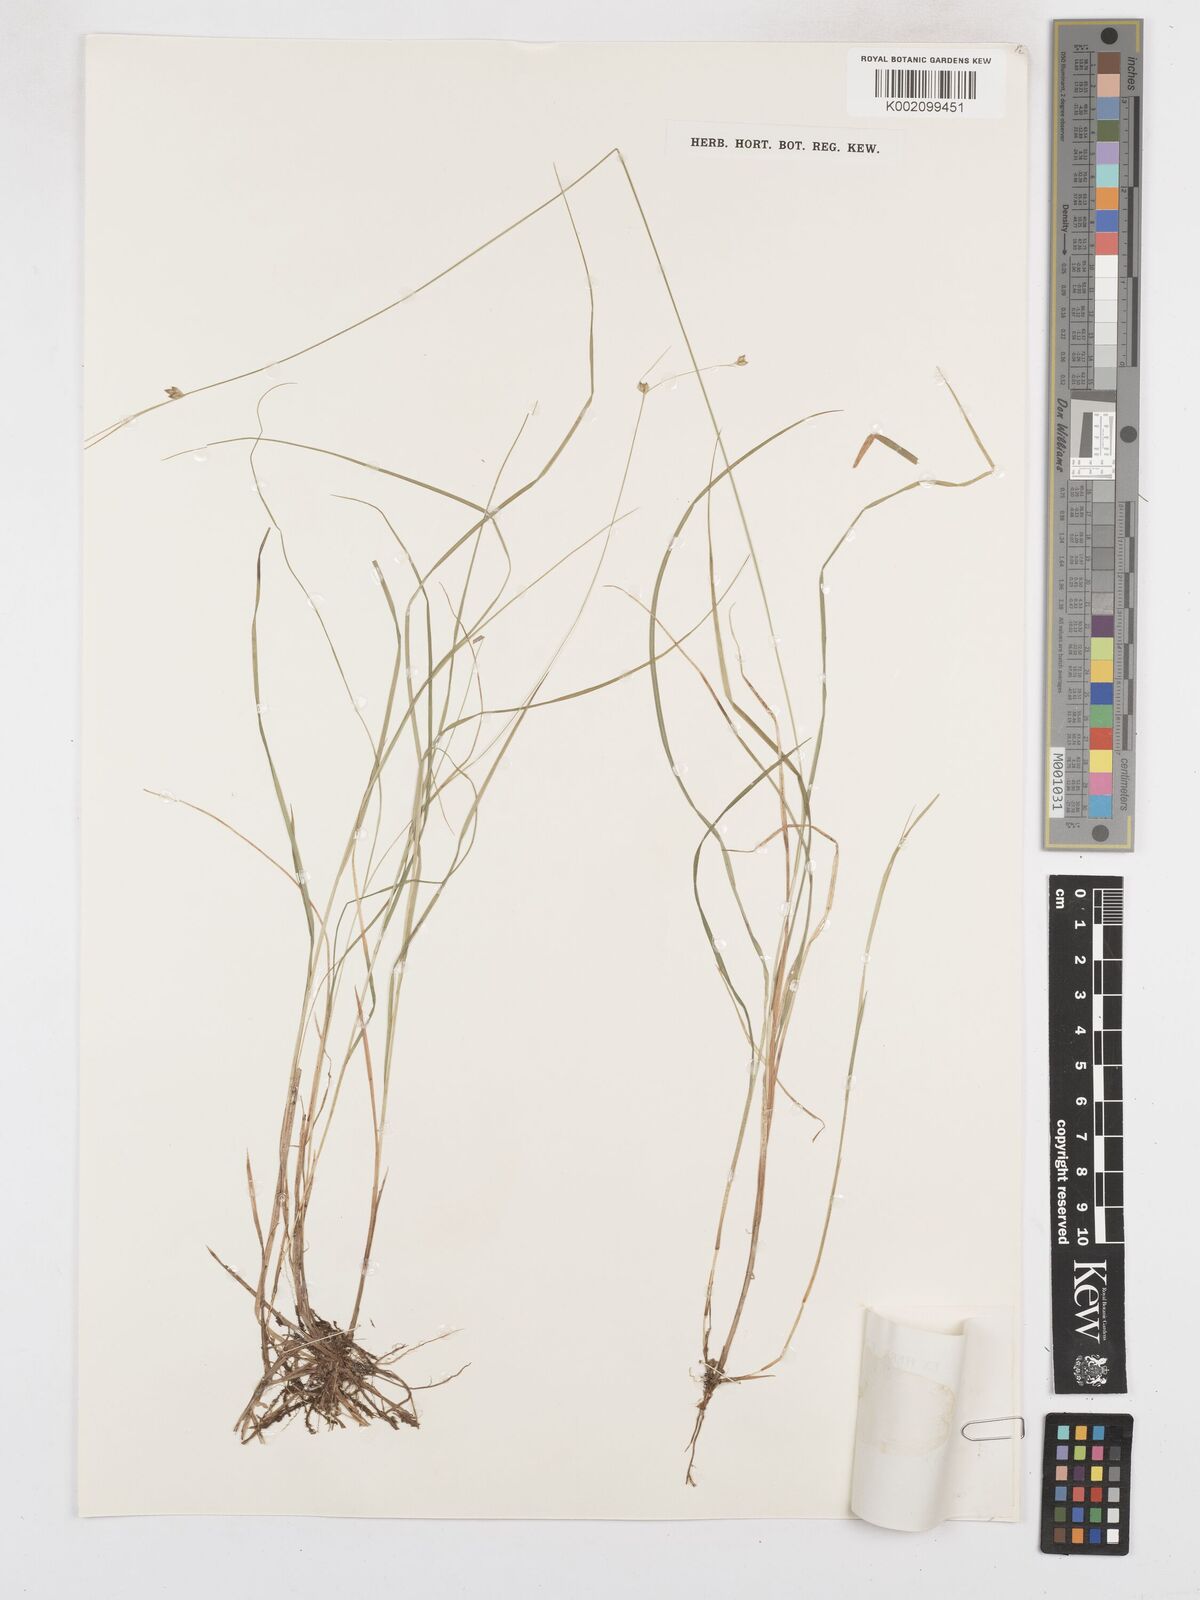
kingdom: Plantae
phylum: Tracheophyta
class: Liliopsida
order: Poales
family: Cyperaceae
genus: Carex
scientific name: Carex trisperma
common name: Three-seeded sedge
